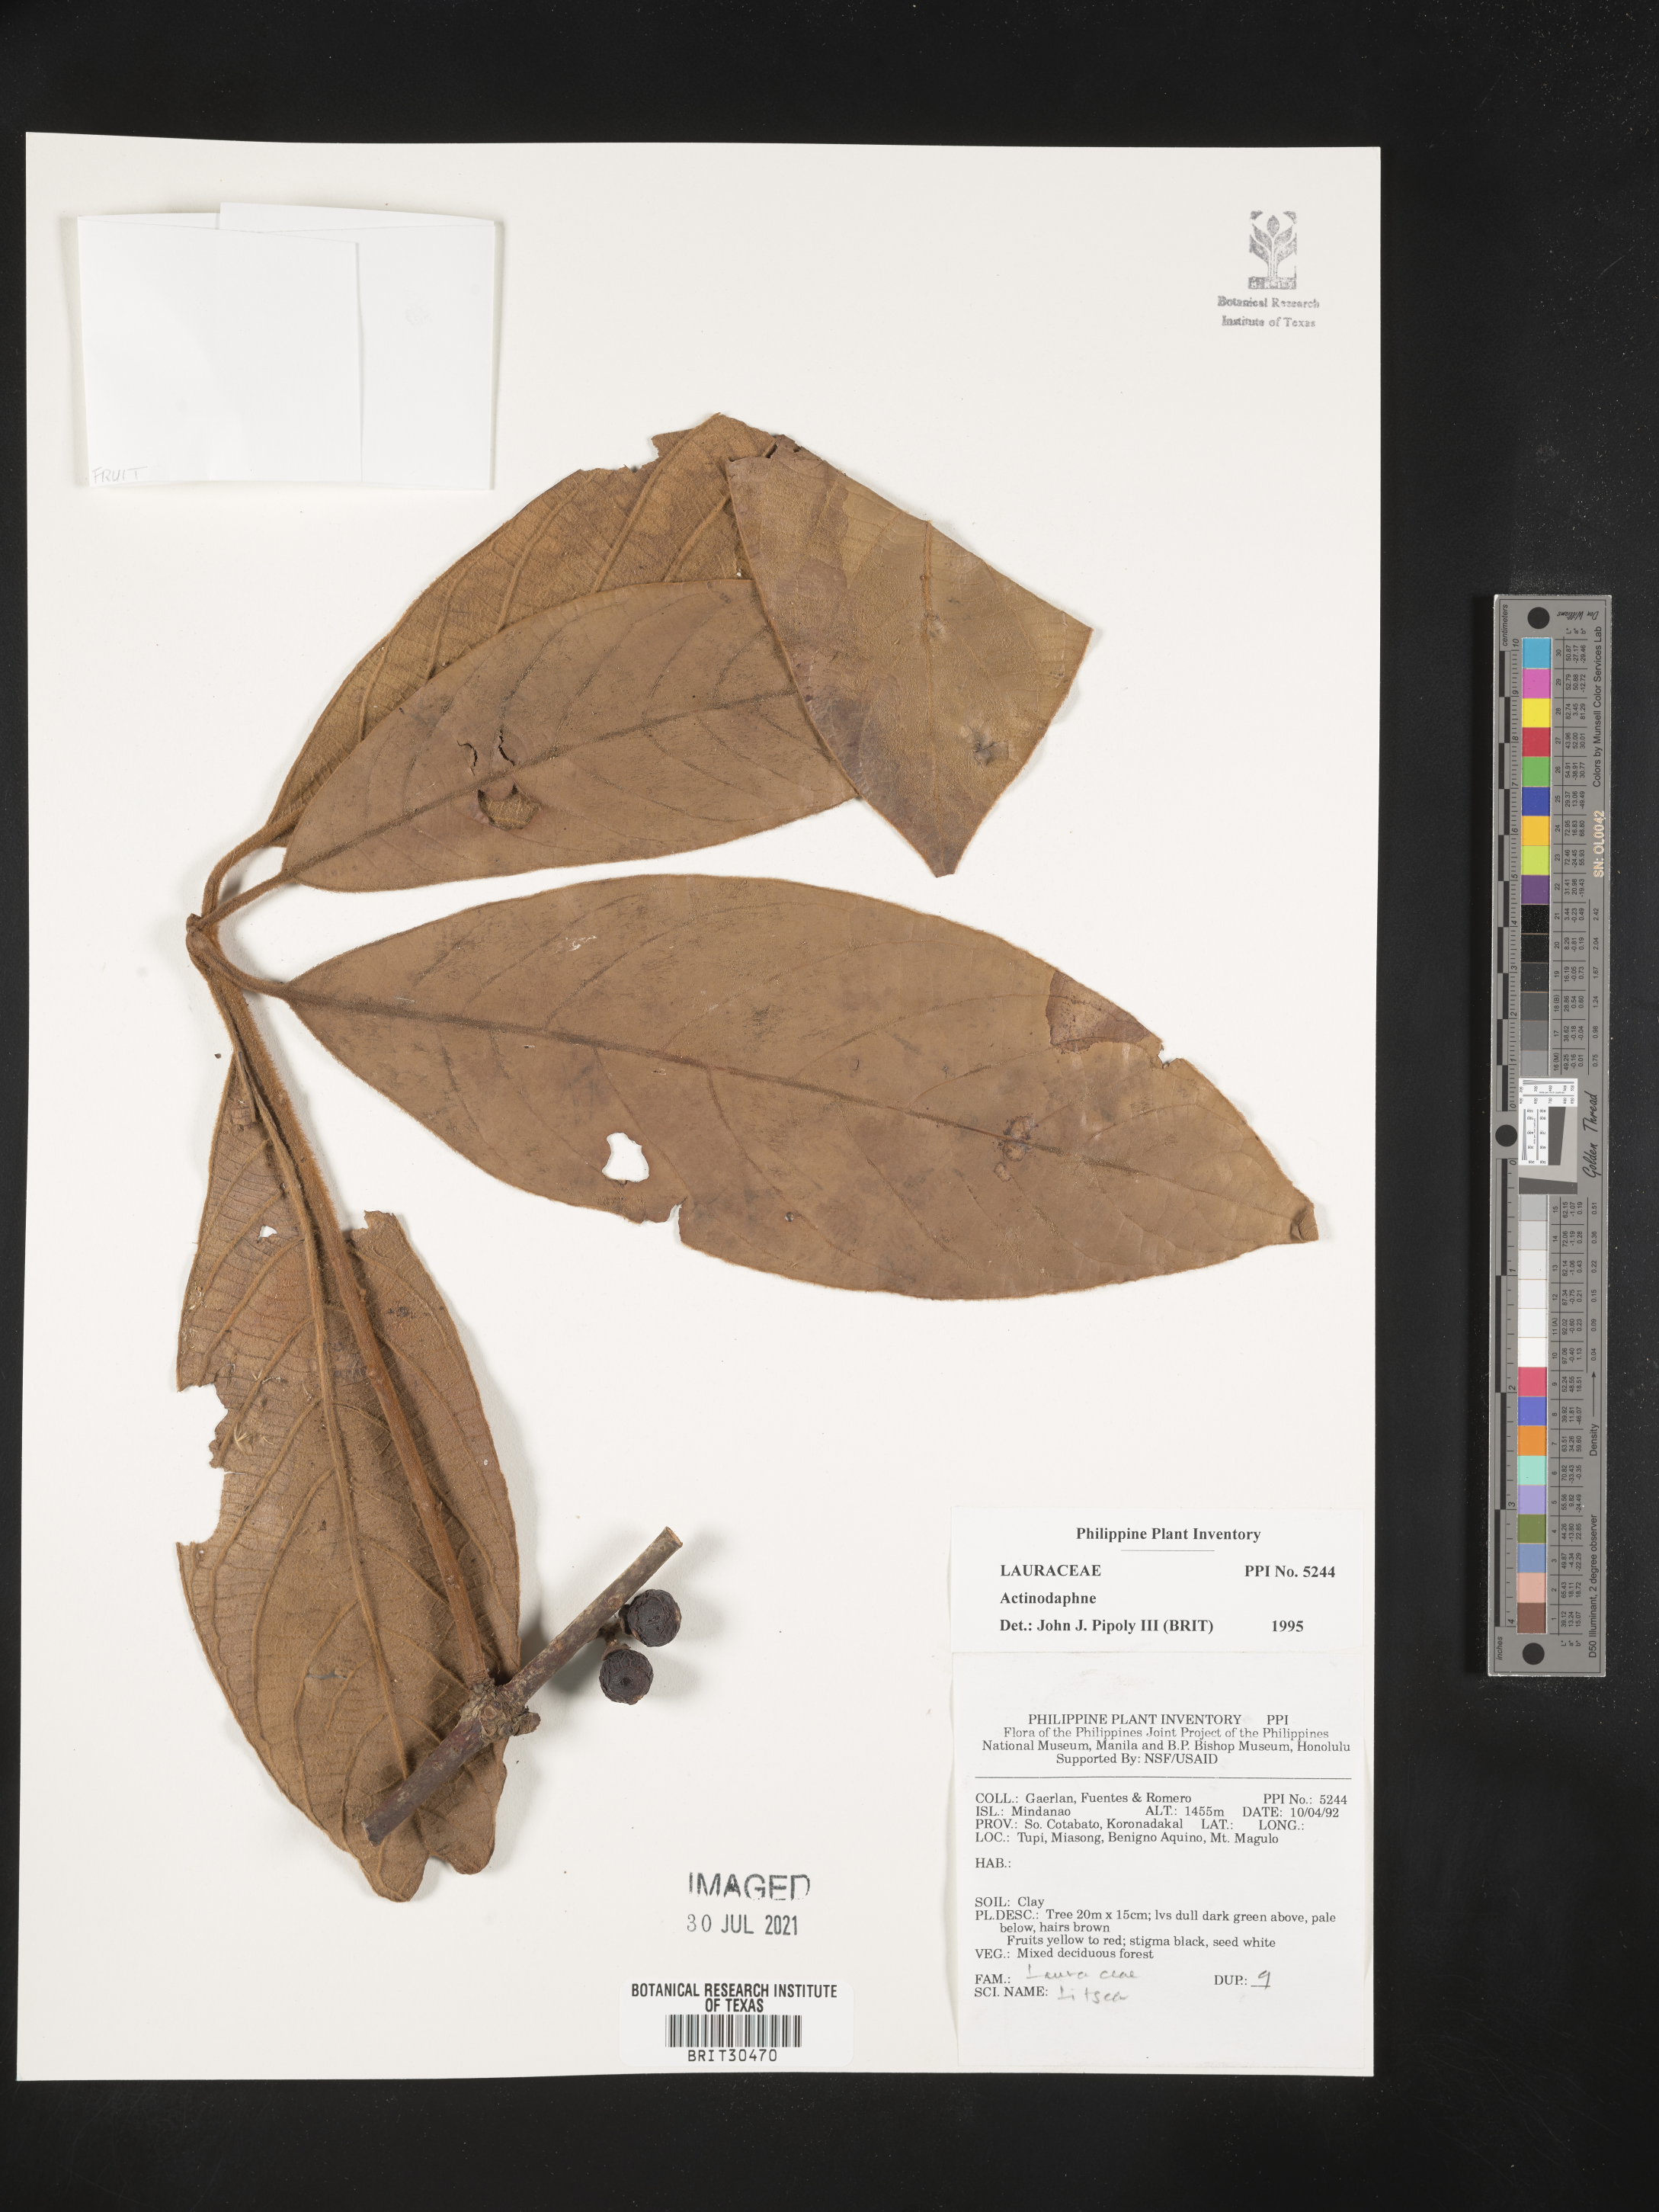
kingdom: Plantae
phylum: Tracheophyta
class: Magnoliopsida
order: Laurales
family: Lauraceae
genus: Actinodaphne
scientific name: Actinodaphne
